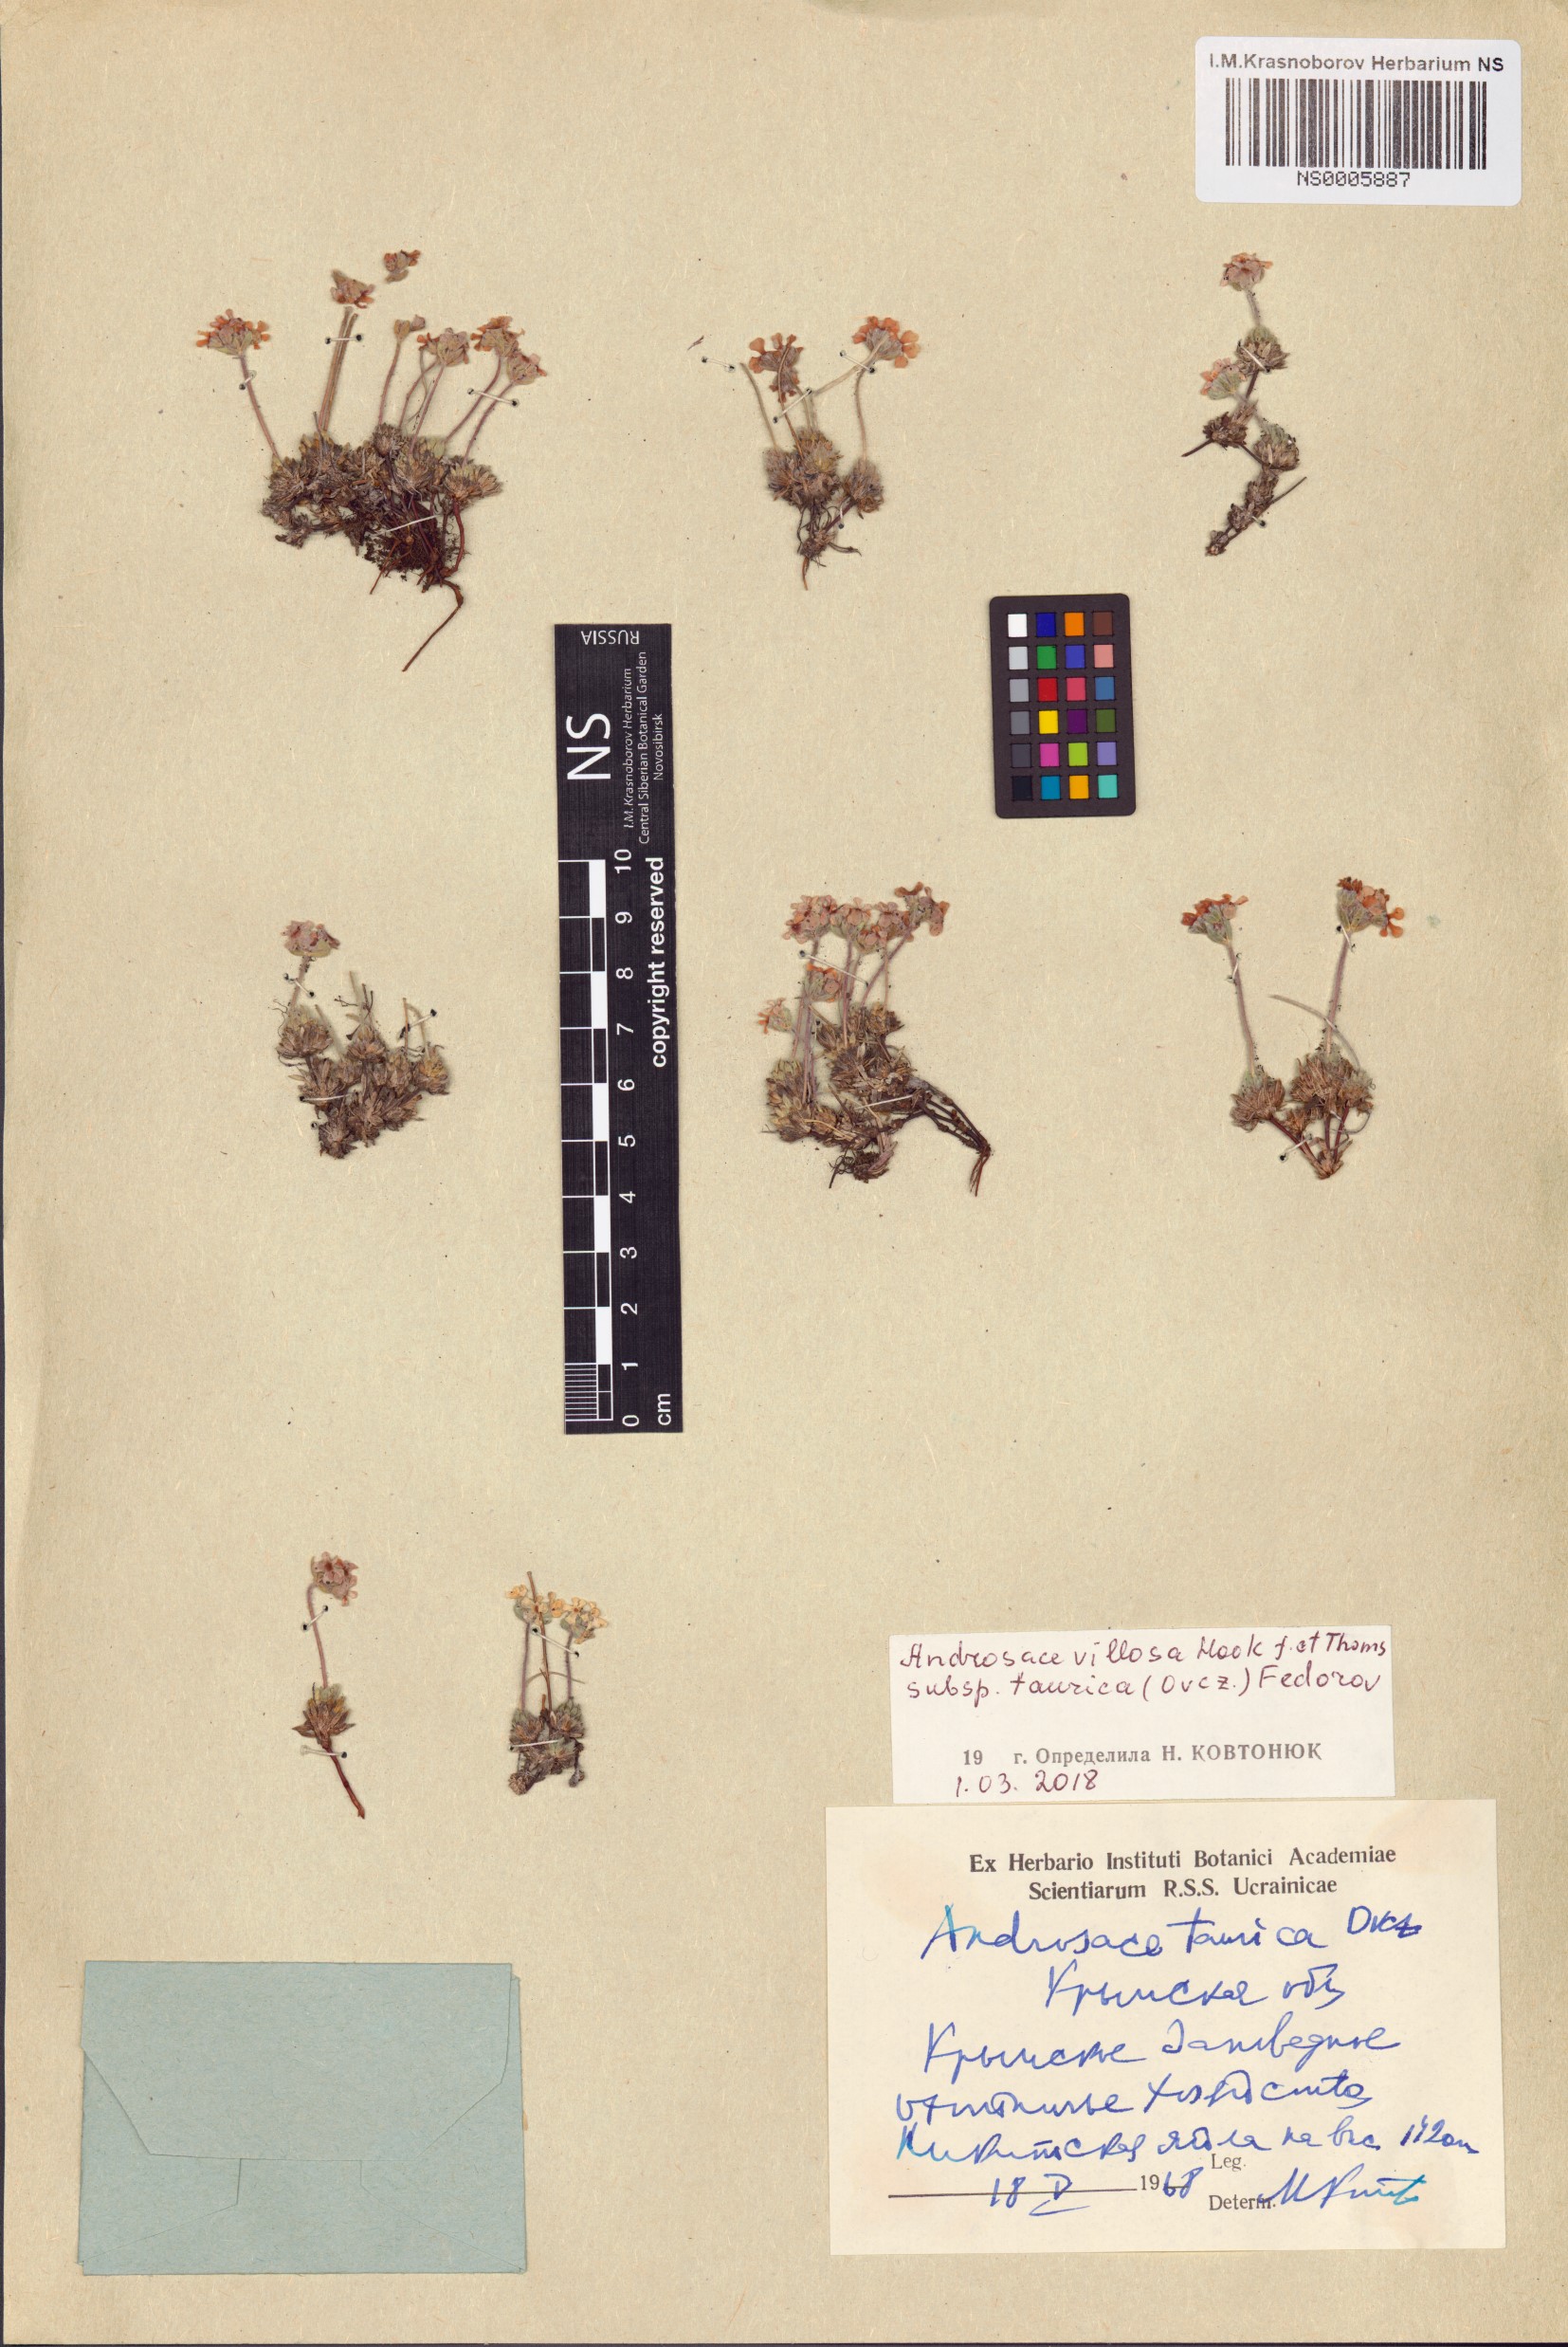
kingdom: Plantae
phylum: Tracheophyta
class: Magnoliopsida
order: Ericales
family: Primulaceae
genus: Androsace
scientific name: Androsace villosa
